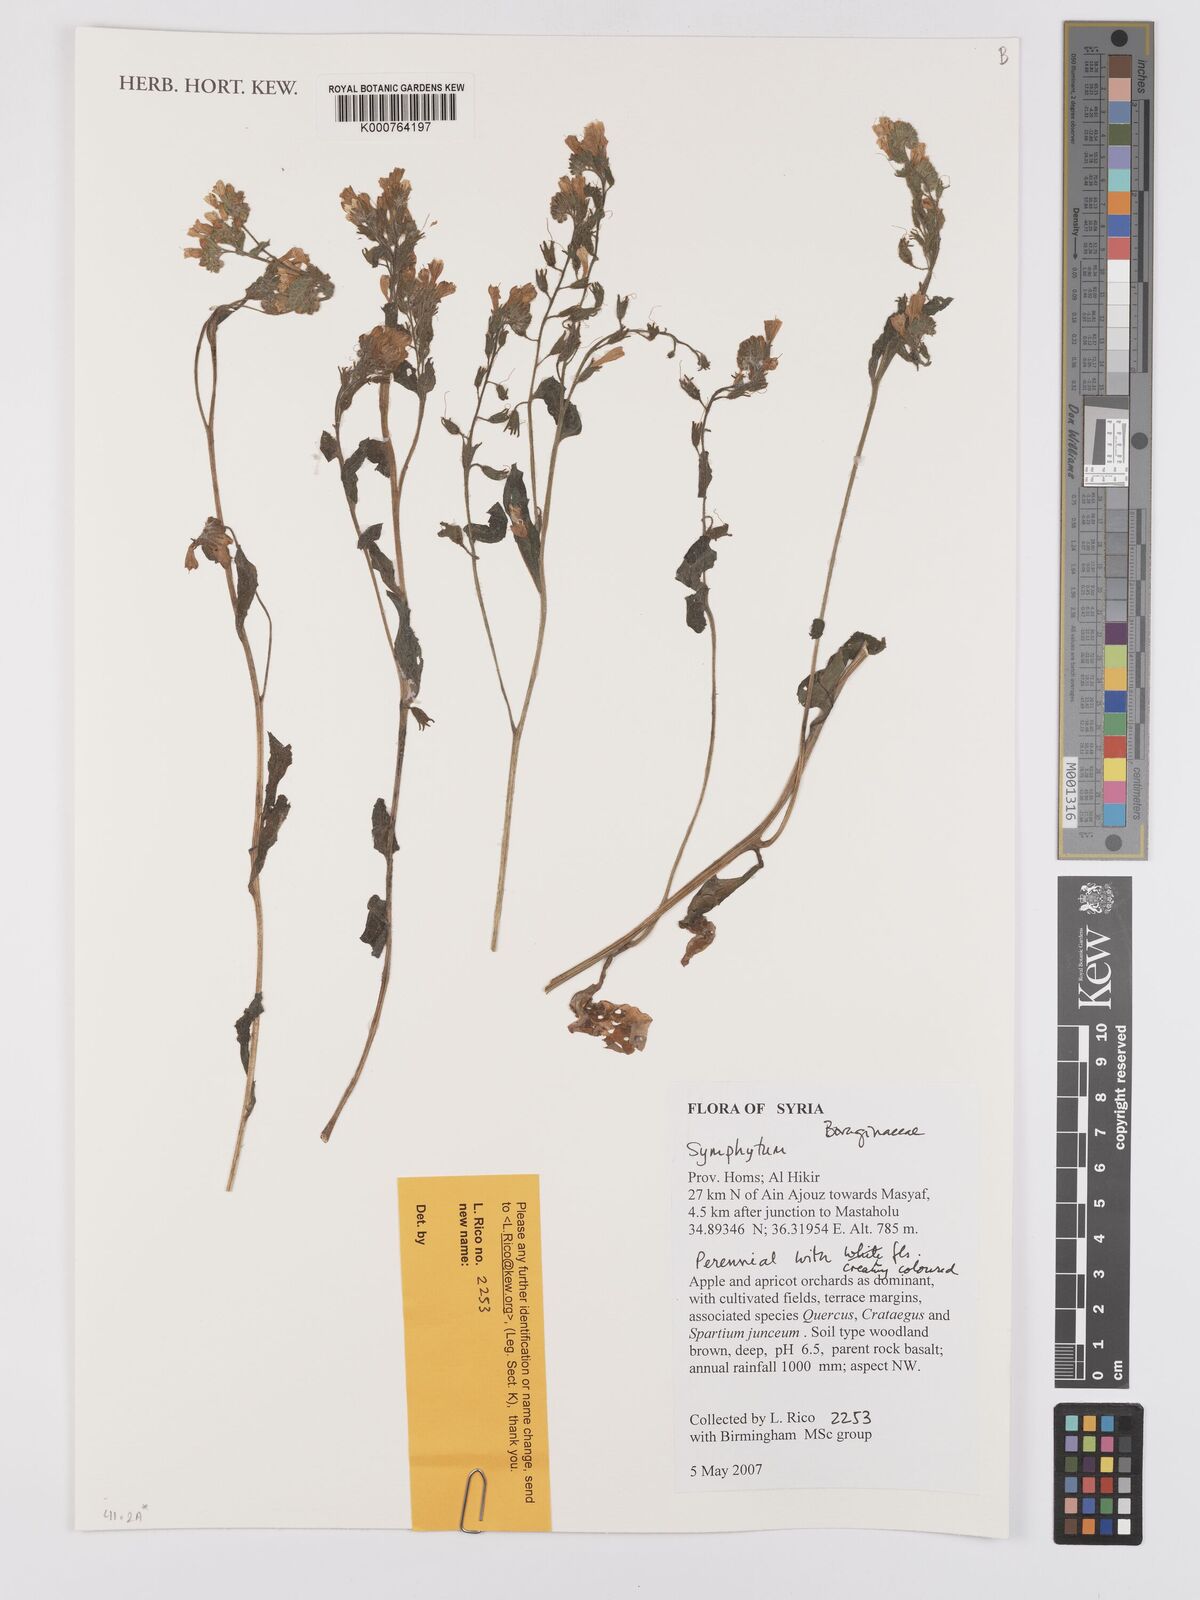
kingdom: Plantae
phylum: Tracheophyta
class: Magnoliopsida
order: Boraginales
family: Boraginaceae
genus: Symphytum
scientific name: Symphytum
